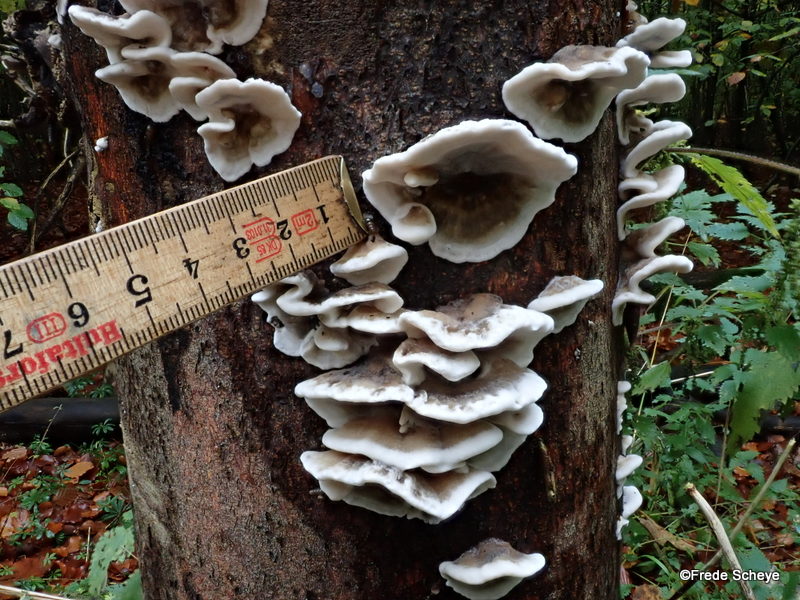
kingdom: Fungi
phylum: Basidiomycota
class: Agaricomycetes
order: Polyporales
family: Phanerochaetaceae
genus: Bjerkandera
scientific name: Bjerkandera adusta
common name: sveden sodporesvamp
